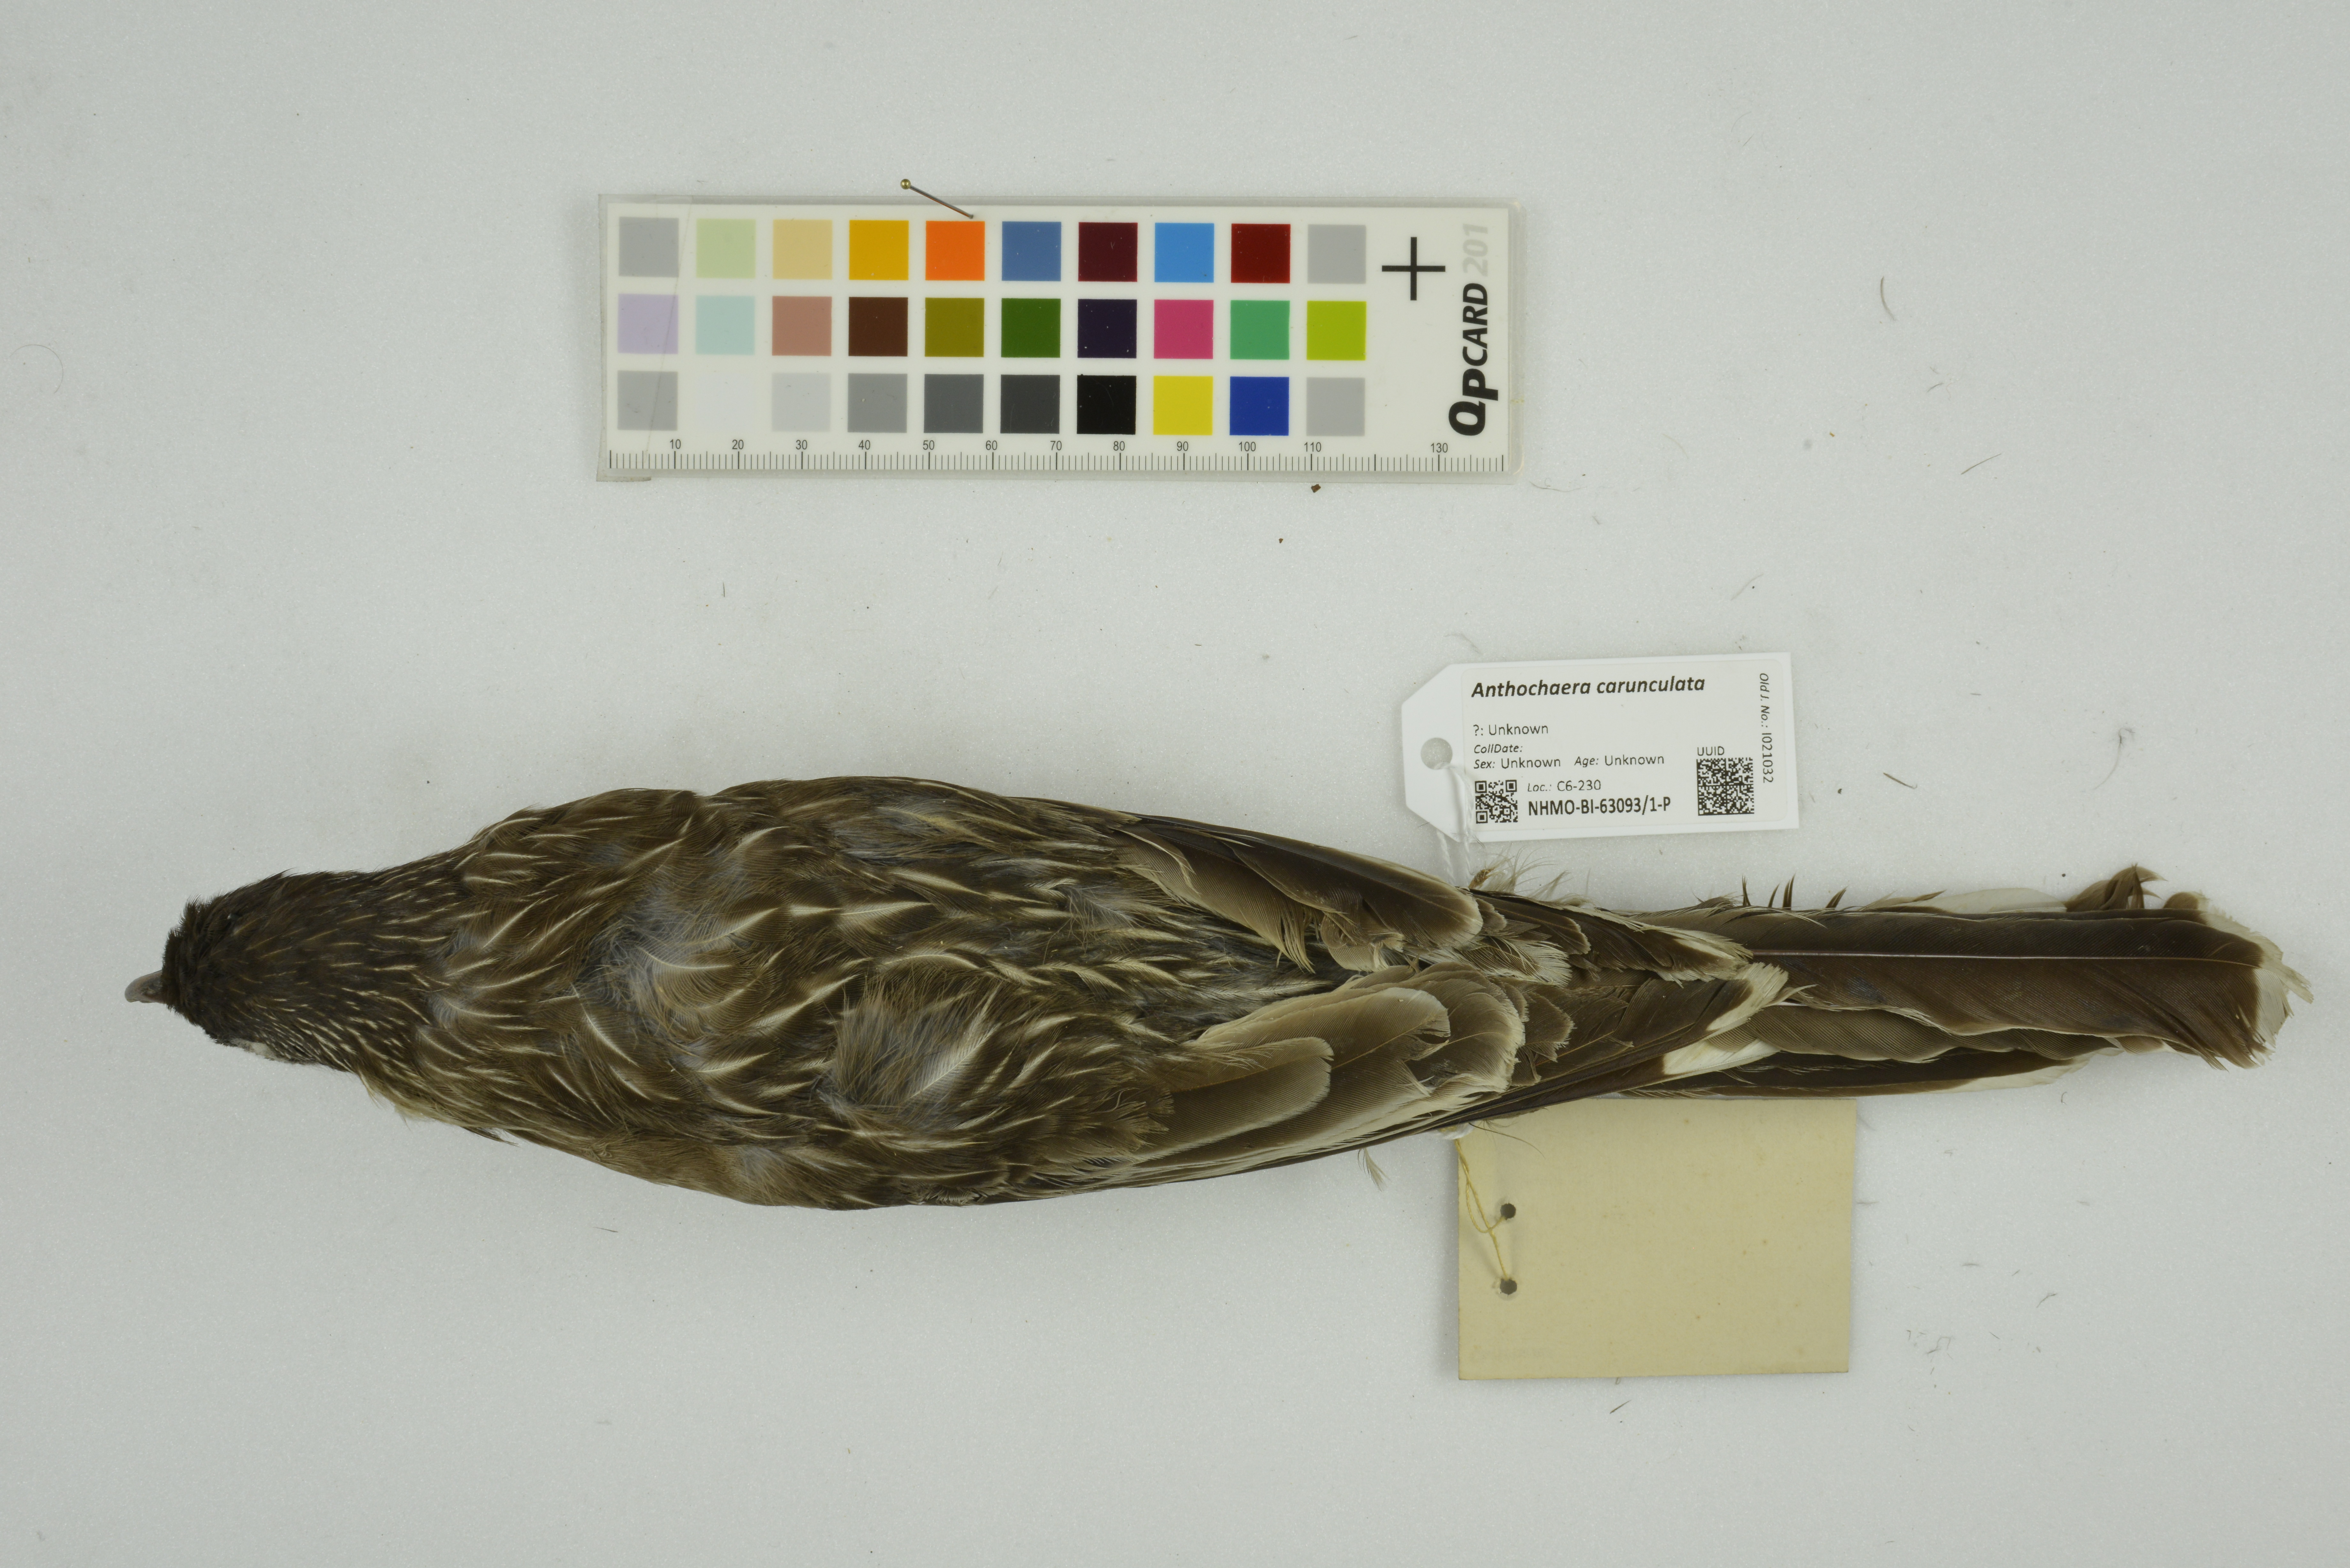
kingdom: Animalia
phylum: Chordata
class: Aves
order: Passeriformes
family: Meliphagidae
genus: Anthochaera
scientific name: Anthochaera carunculata
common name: Red wattlebird
